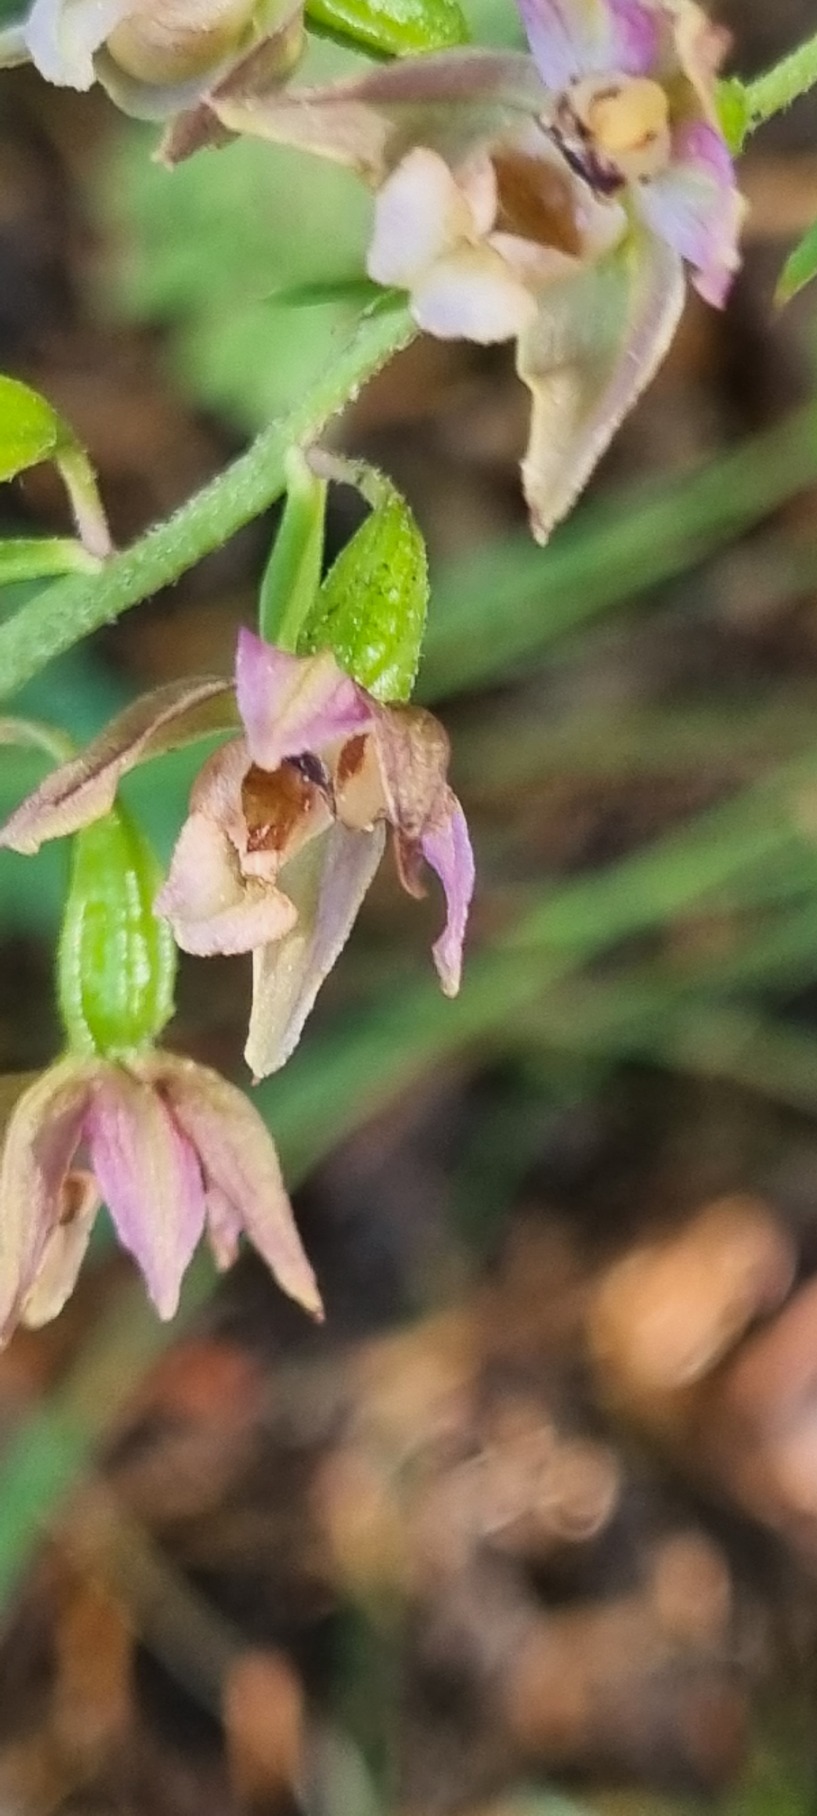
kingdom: Plantae
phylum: Tracheophyta
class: Liliopsida
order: Asparagales
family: Orchidaceae
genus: Epipactis
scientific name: Epipactis helleborine
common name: Skov-hullæbe
